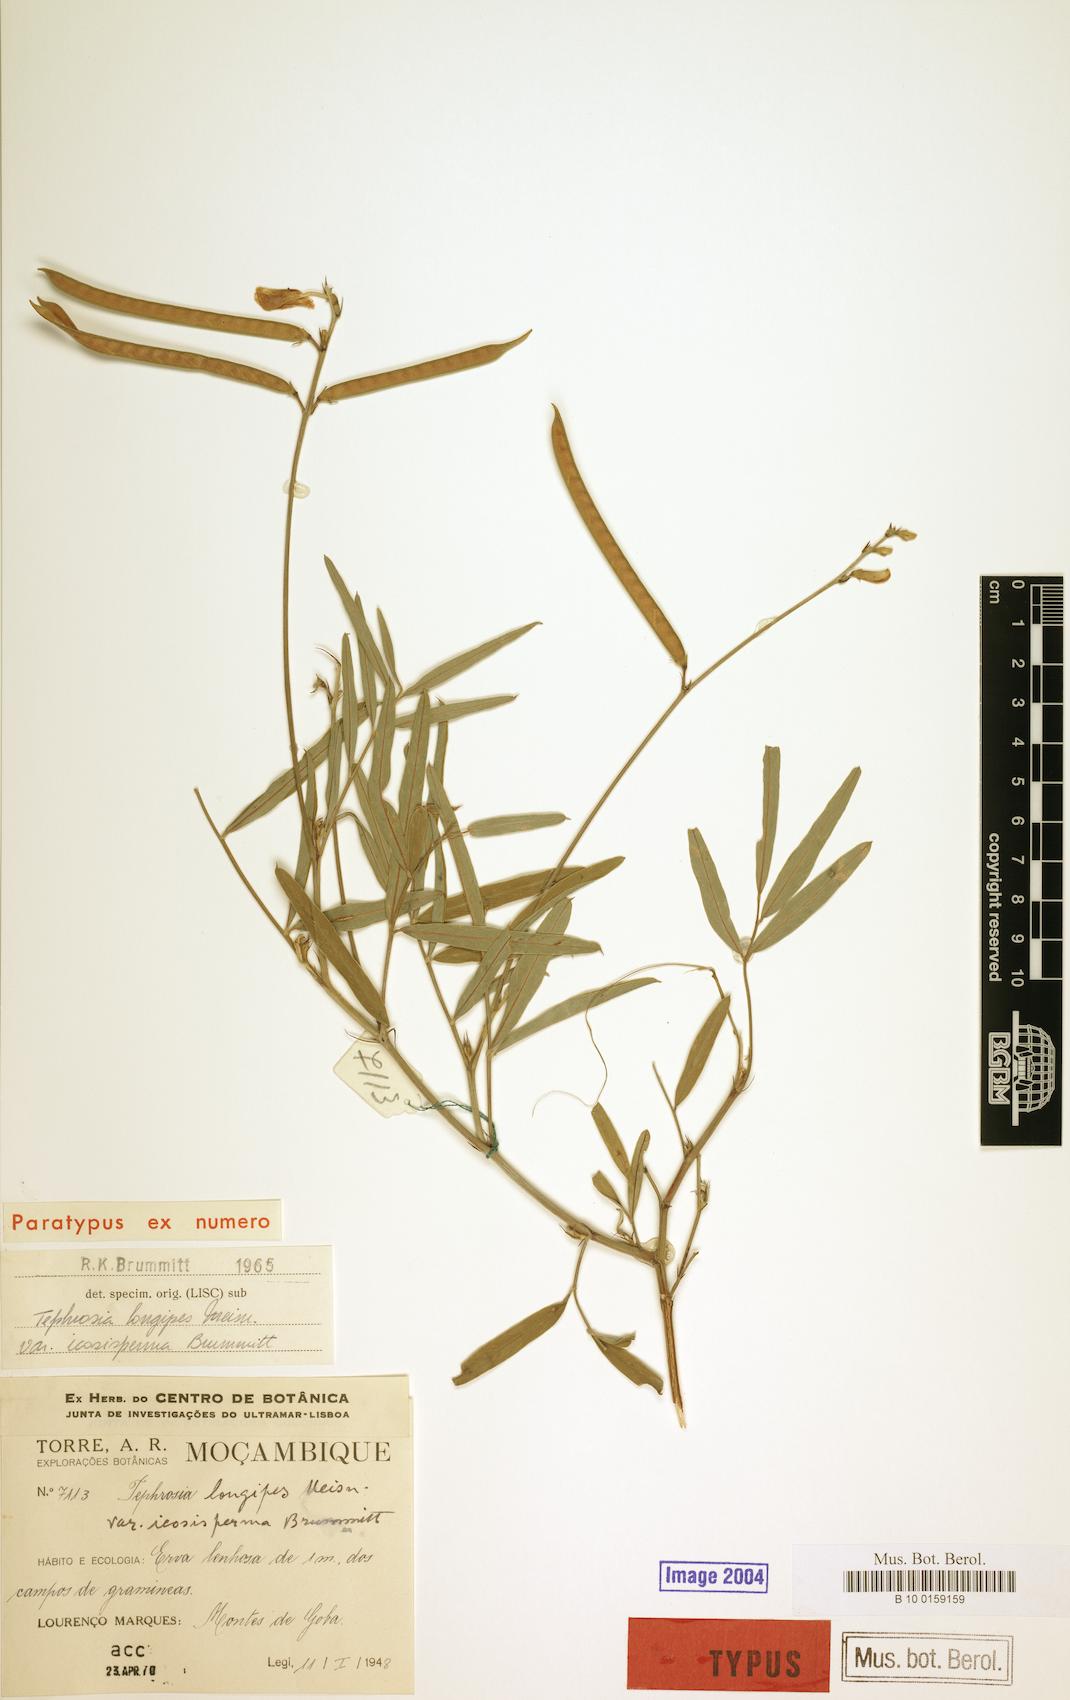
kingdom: Plantae
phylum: Tracheophyta
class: Magnoliopsida
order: Fabales
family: Fabaceae
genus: Tephrosia
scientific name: Tephrosia longipes
